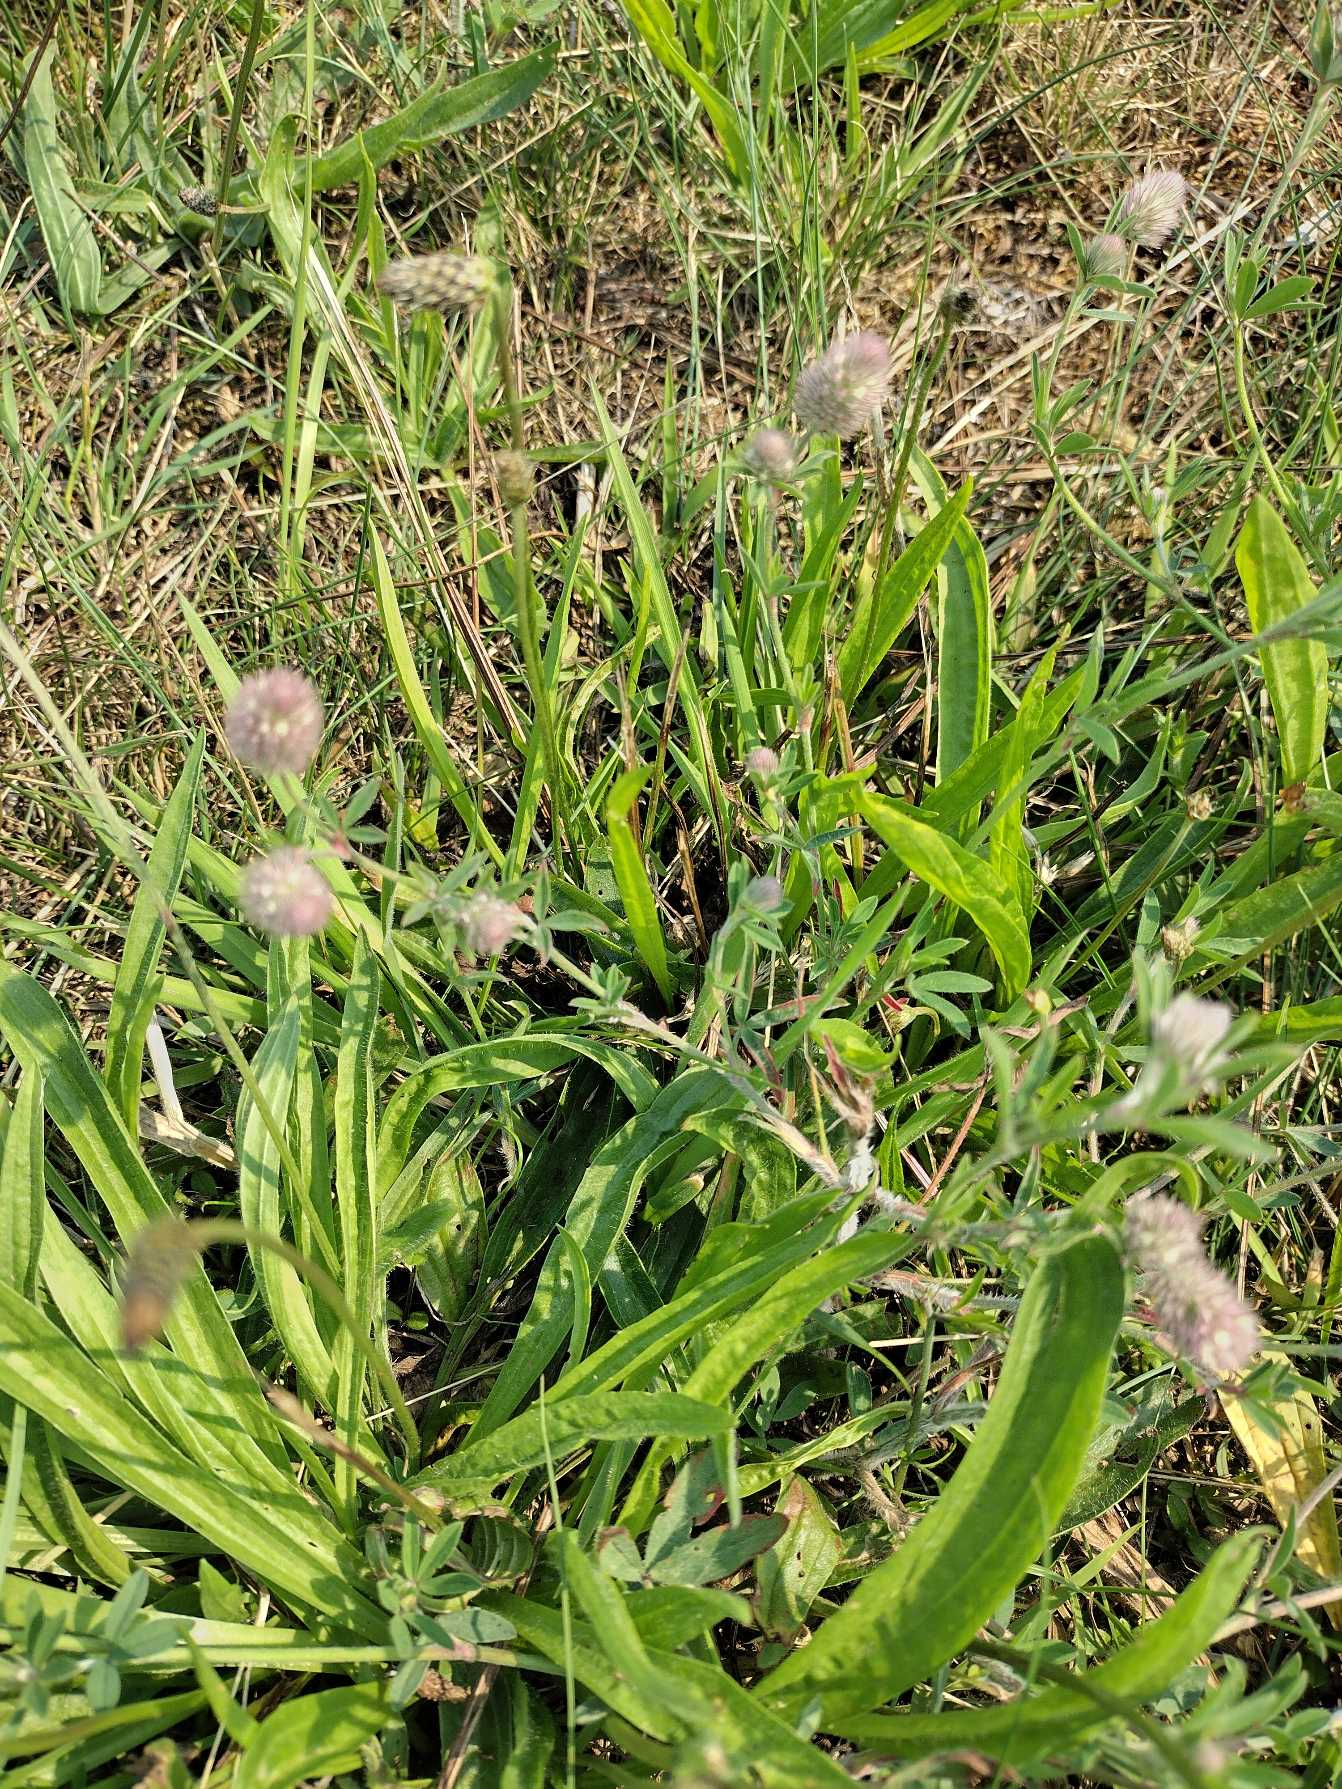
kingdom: Plantae
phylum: Tracheophyta
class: Magnoliopsida
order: Fabales
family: Fabaceae
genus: Trifolium
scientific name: Trifolium arvense
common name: Hare-kløver
